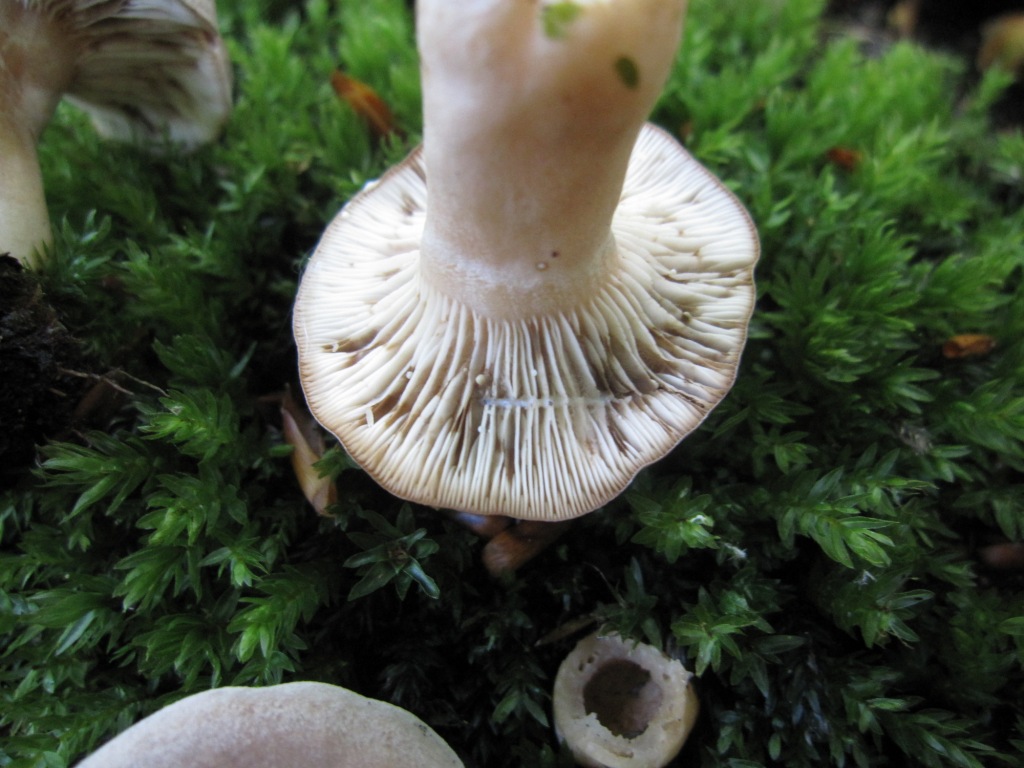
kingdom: Fungi
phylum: Basidiomycota
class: Agaricomycetes
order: Russulales
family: Russulaceae
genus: Lactarius
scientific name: Lactarius vietus
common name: violetgrå mælkehat
